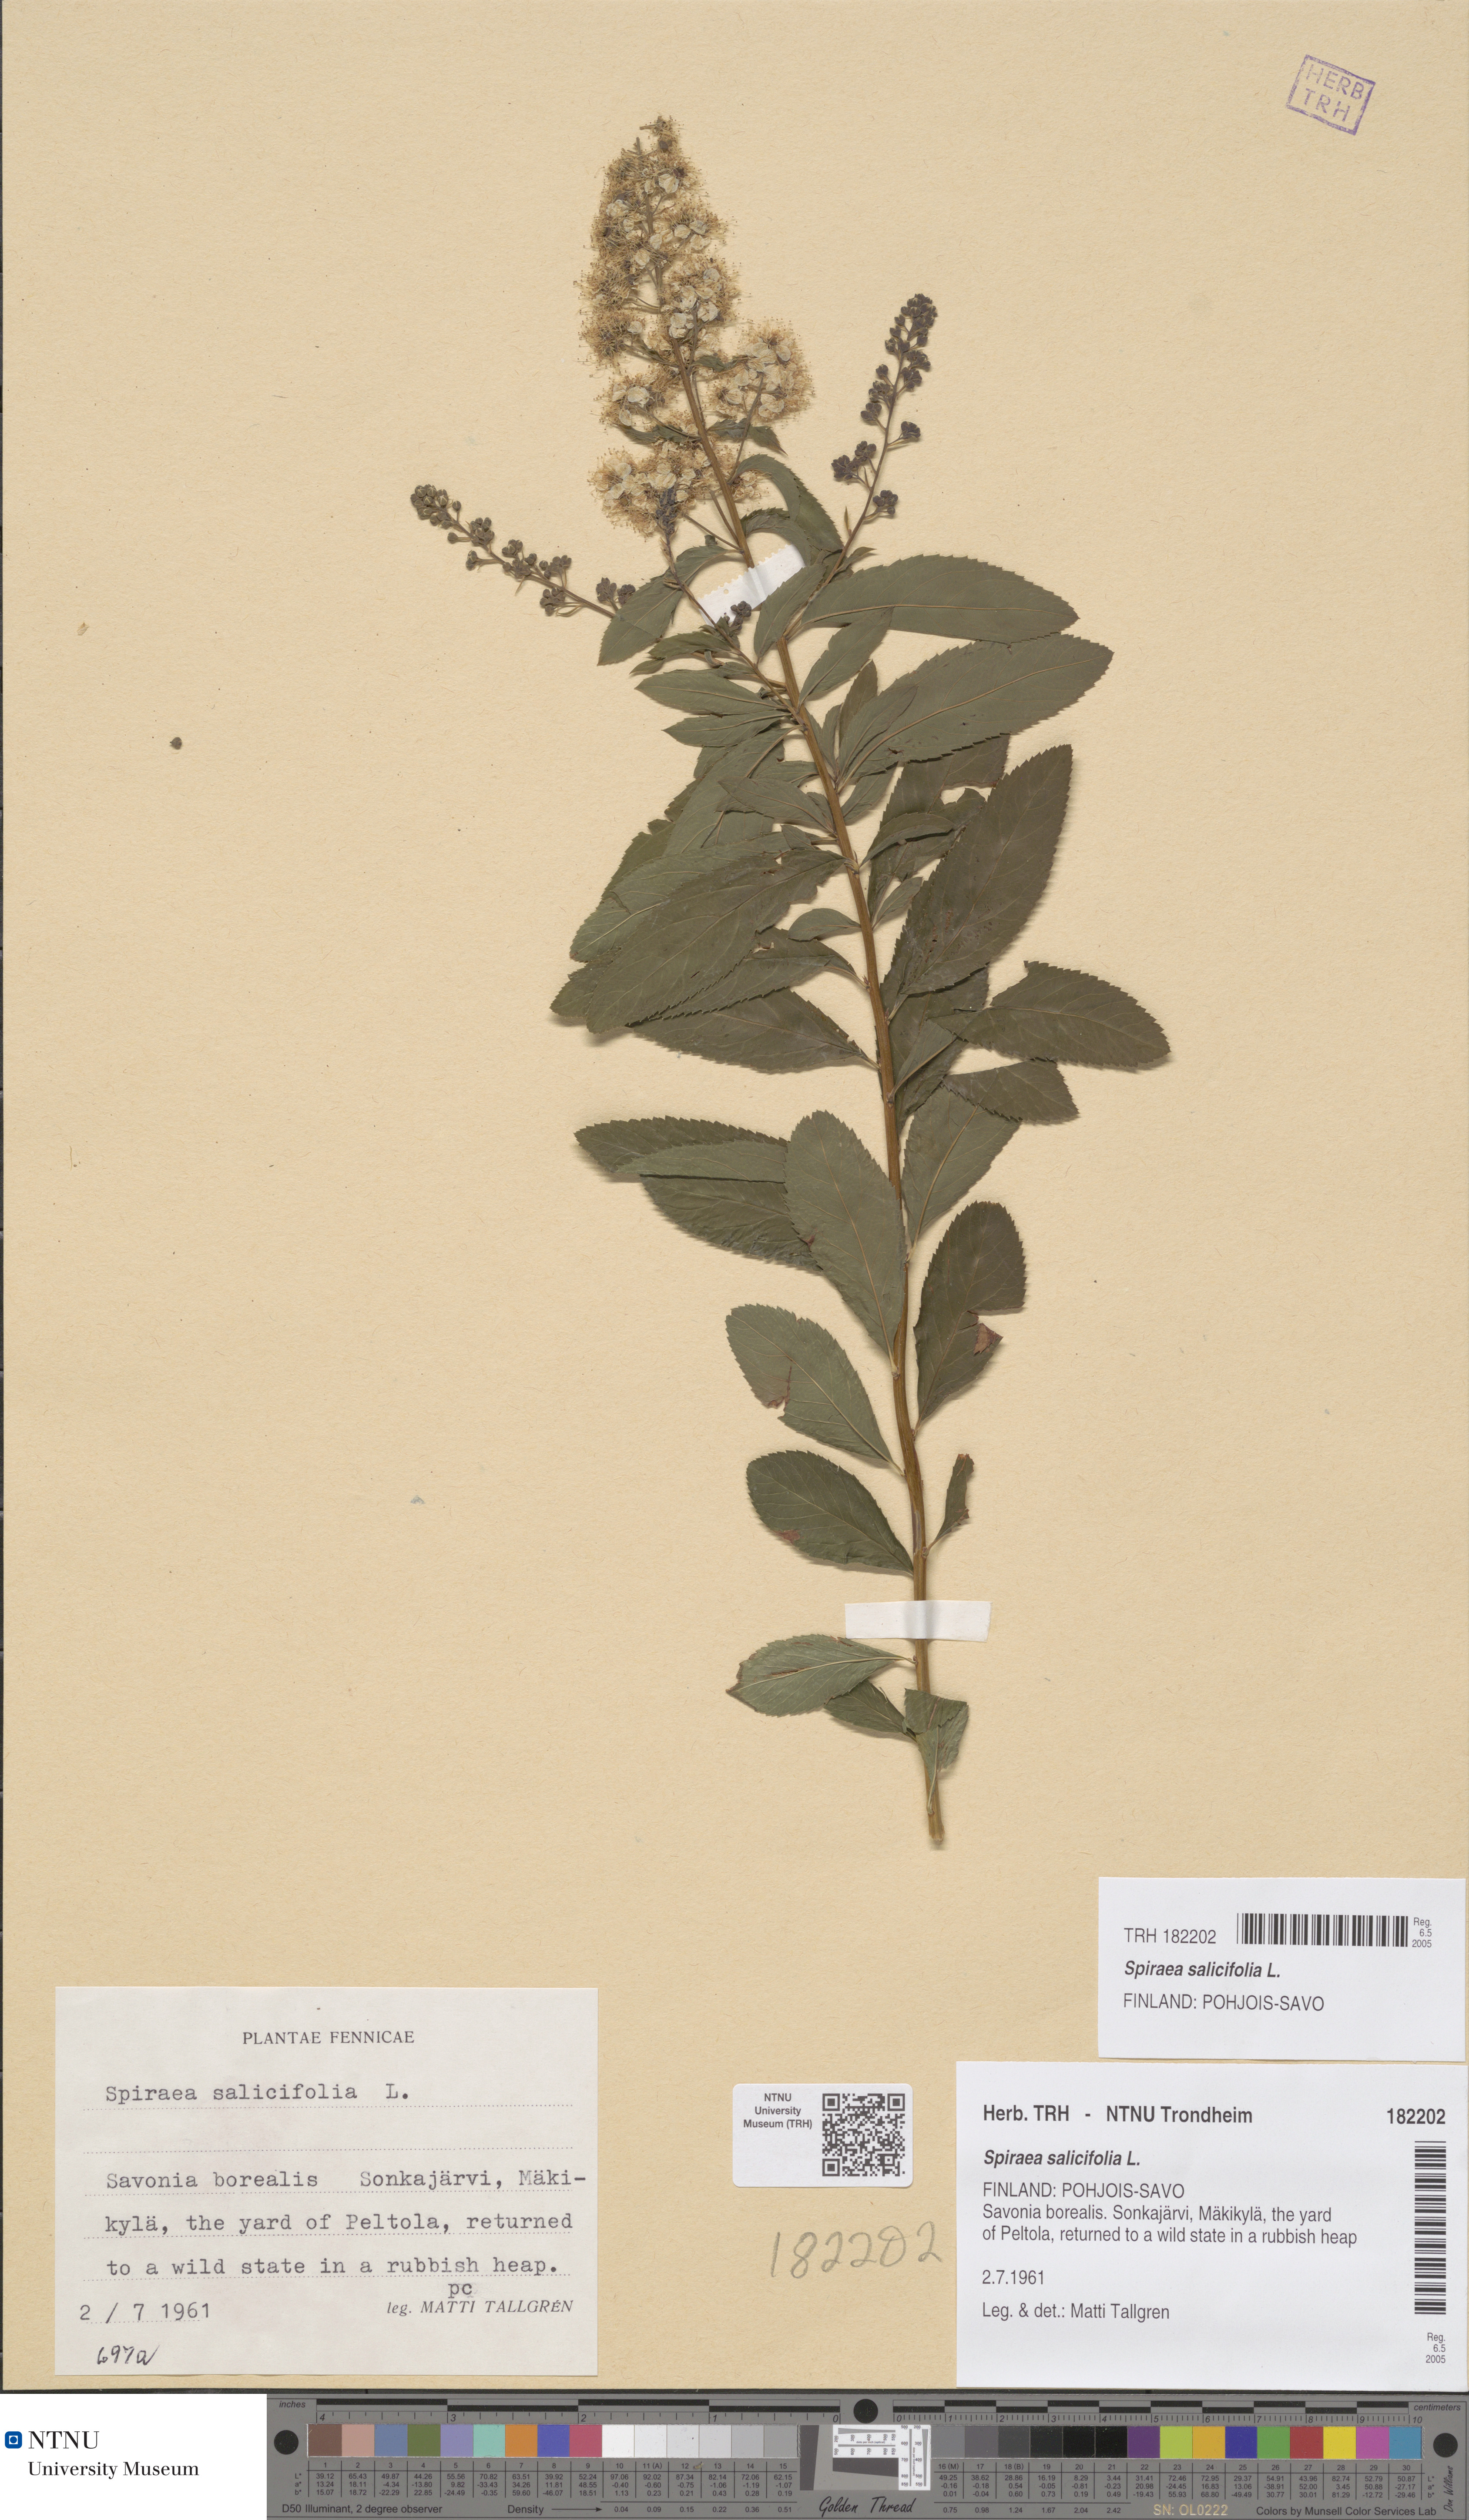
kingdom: Plantae
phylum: Tracheophyta
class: Magnoliopsida
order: Rosales
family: Rosaceae
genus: Spiraea
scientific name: Spiraea salicifolia
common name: Bridewort
